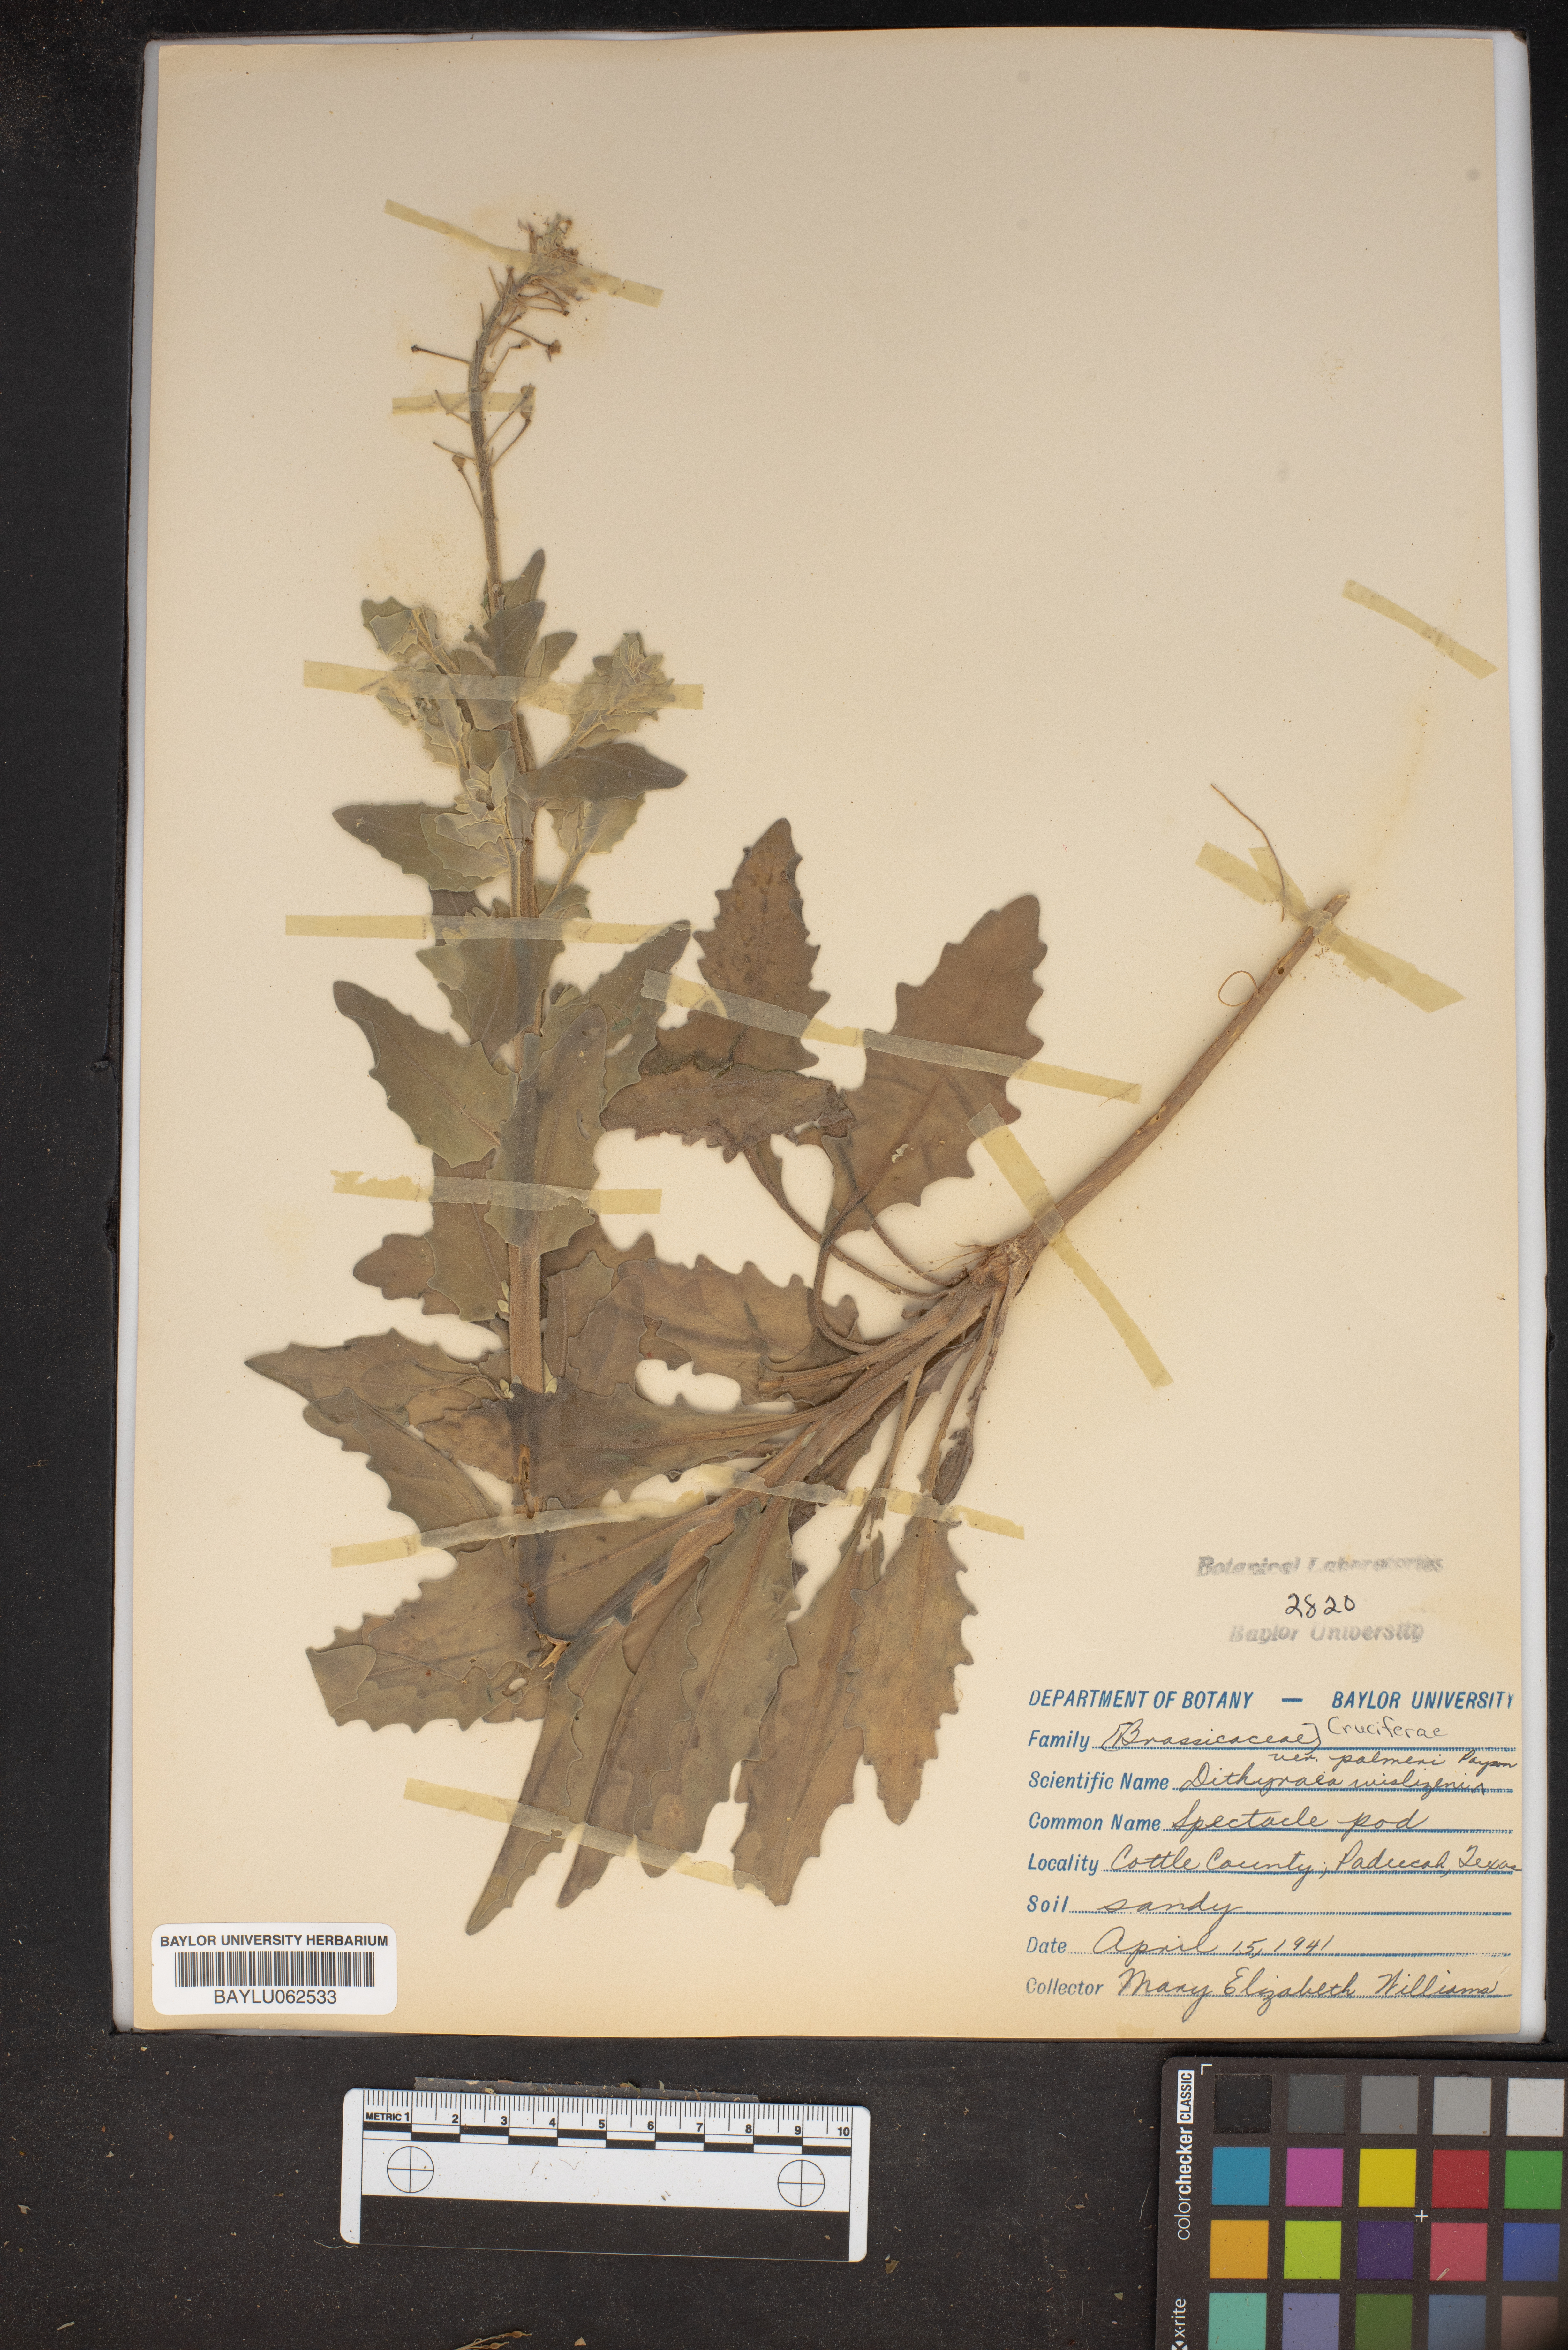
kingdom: Plantae
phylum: Tracheophyta
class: Magnoliopsida
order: Brassicales
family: Brassicaceae
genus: Dimorphocarpa
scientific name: Dimorphocarpa wislizenii
